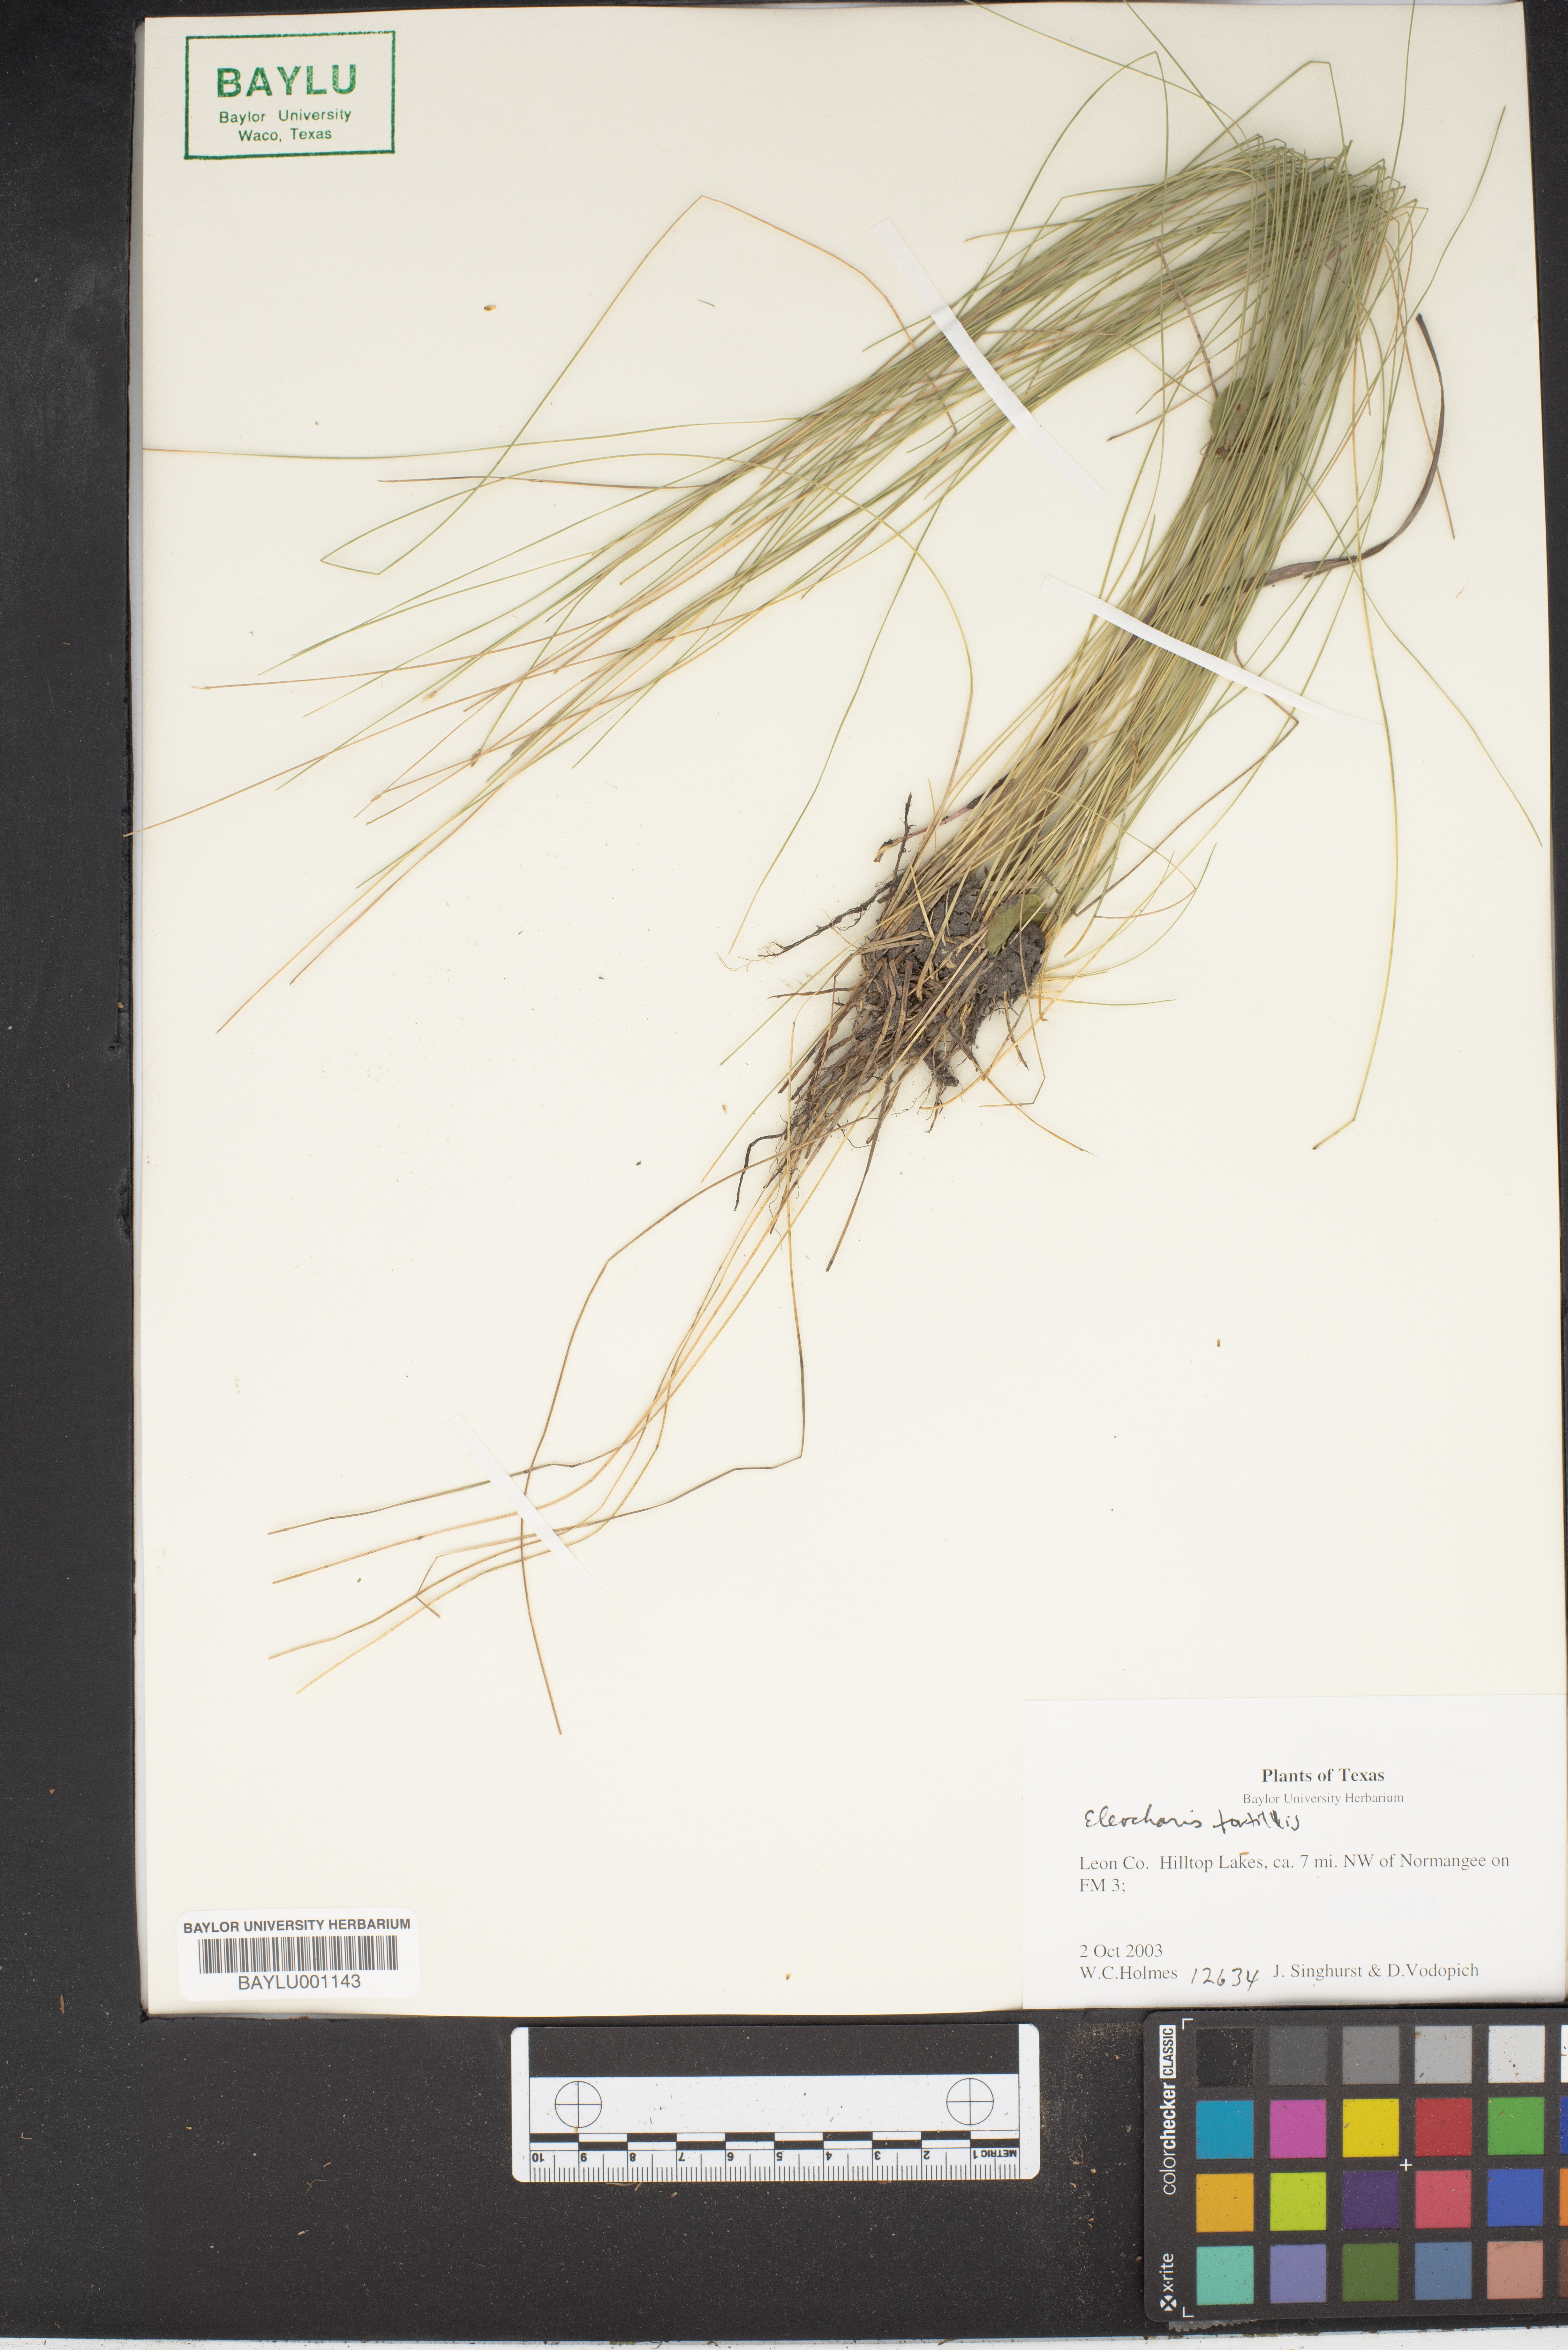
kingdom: Plantae
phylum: Tracheophyta
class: Liliopsida
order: Poales
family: Cyperaceae
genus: Eleocharis
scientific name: Eleocharis tortilis
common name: Twisted spike sedge
